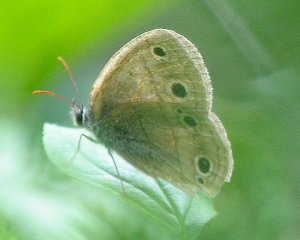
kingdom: Animalia
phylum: Arthropoda
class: Insecta
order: Lepidoptera
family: Nymphalidae
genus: Euptychia
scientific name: Euptychia cymela
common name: Little Wood Satyr
